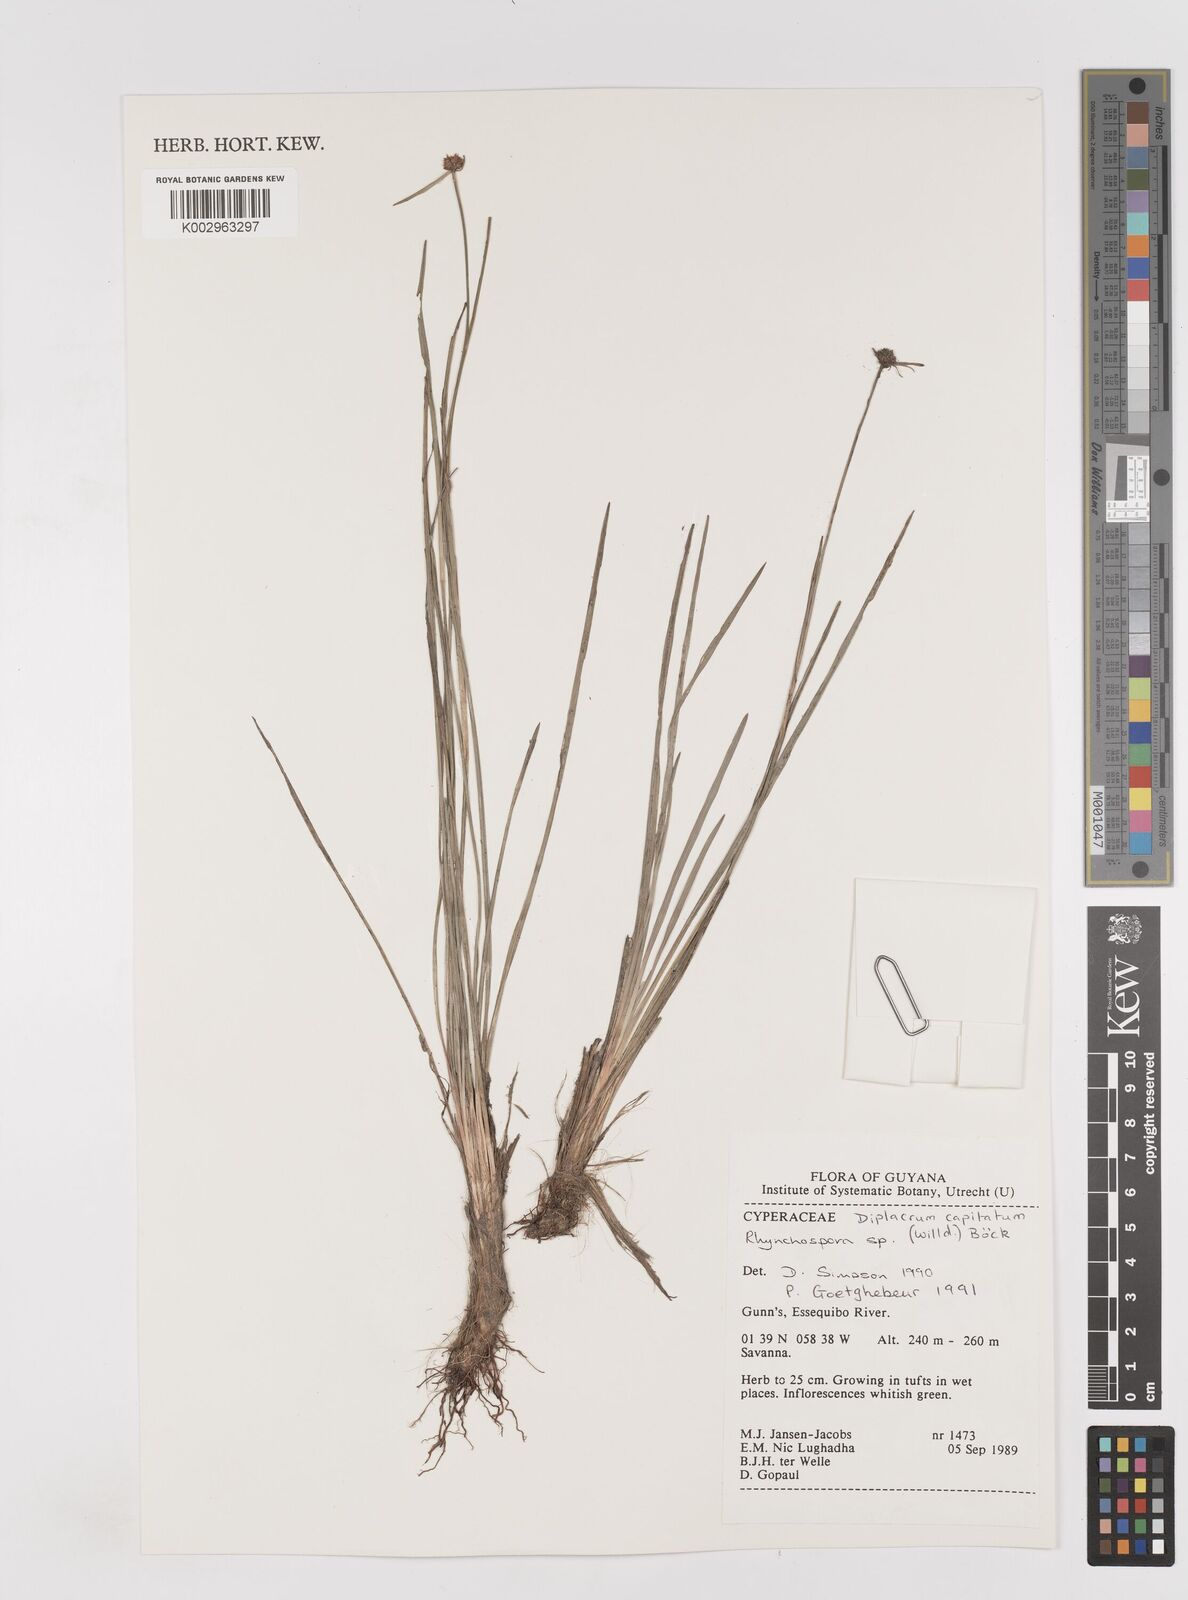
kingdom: Plantae
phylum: Tracheophyta
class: Liliopsida
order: Poales
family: Cyperaceae
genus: Diplacrum
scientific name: Diplacrum capitatum
